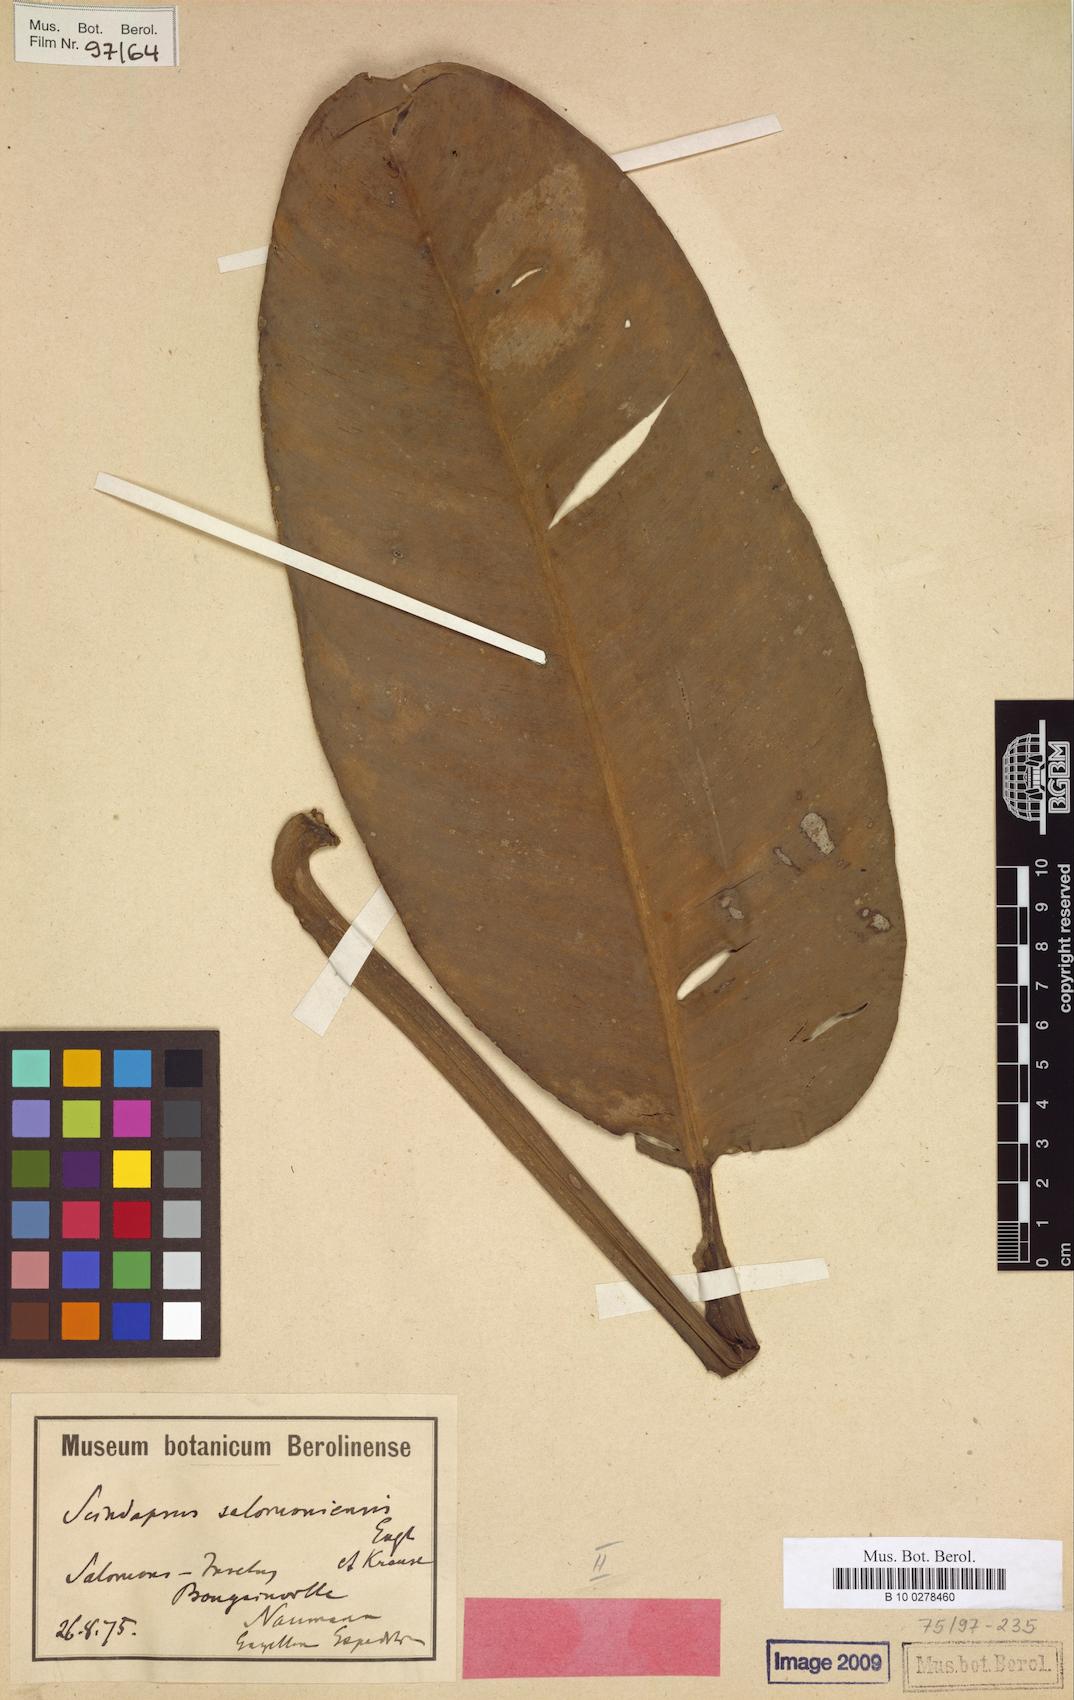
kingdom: Plantae
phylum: Tracheophyta
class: Liliopsida
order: Alismatales
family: Araceae
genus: Scindapsus
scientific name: Scindapsus salomoniensis
